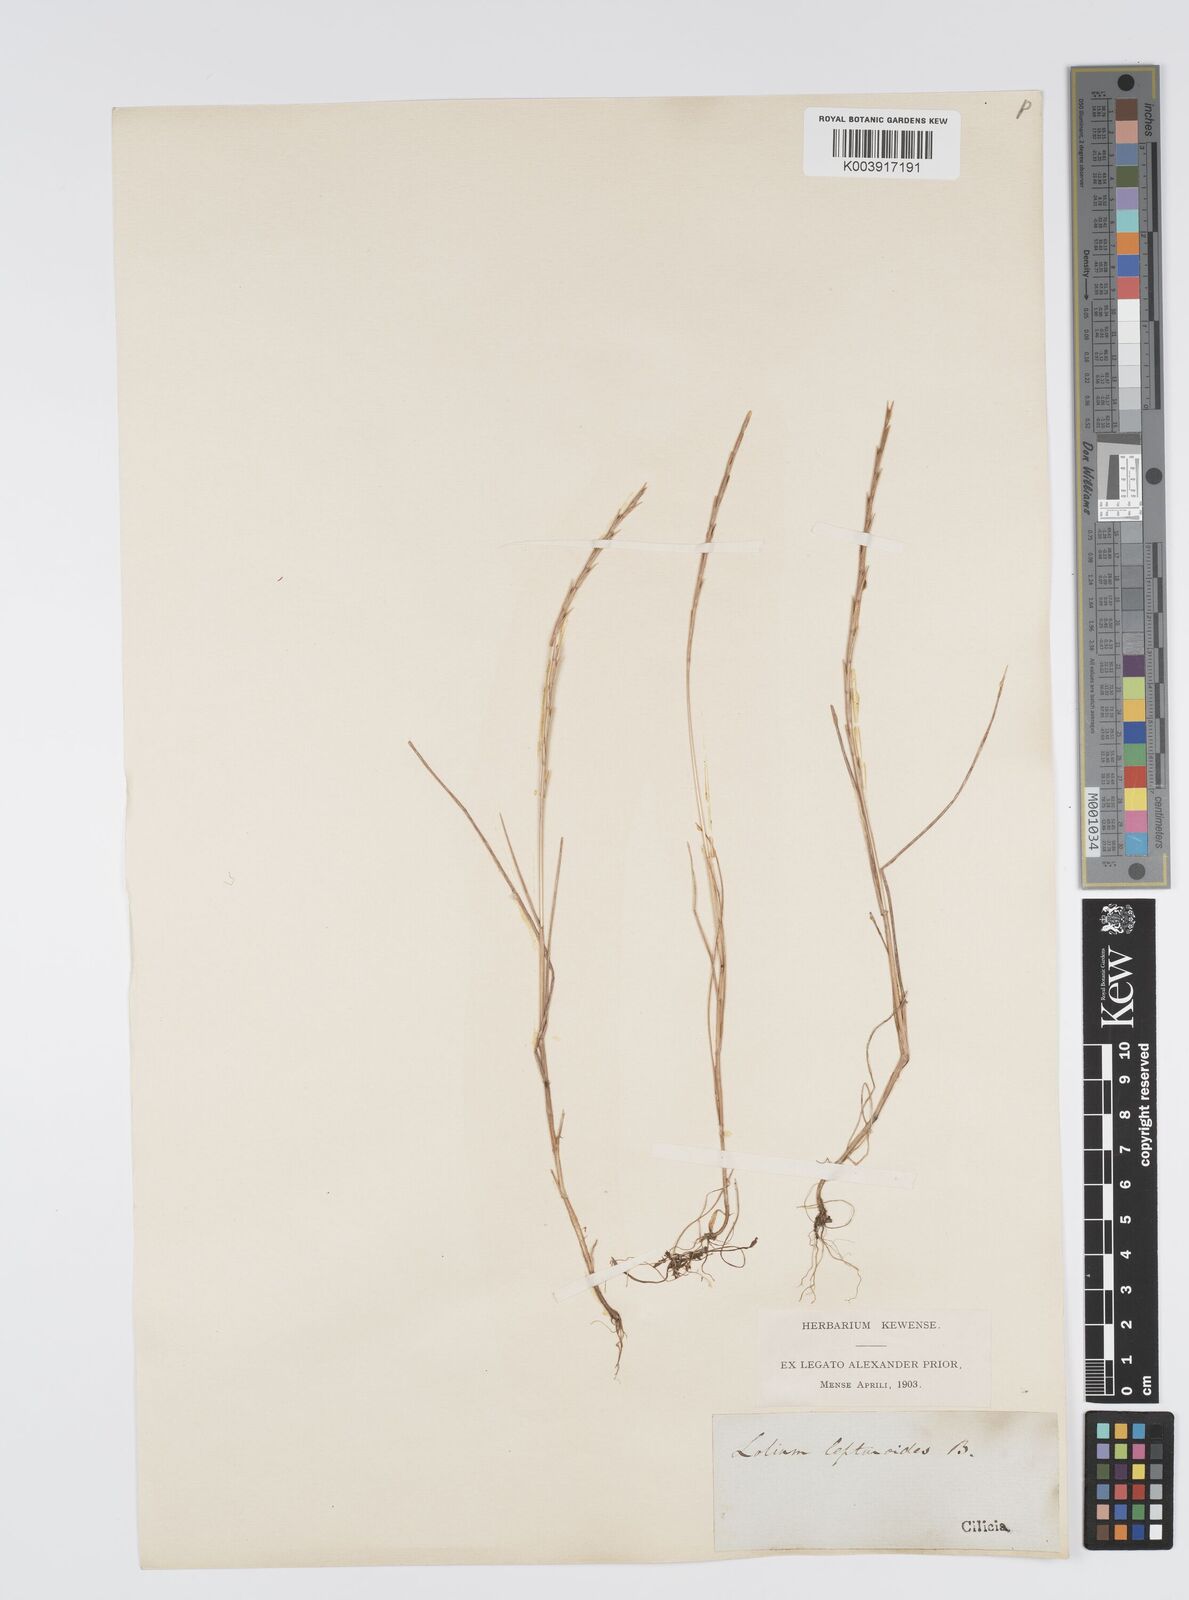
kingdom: Plantae
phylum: Tracheophyta
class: Liliopsida
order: Poales
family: Poaceae
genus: Lolium
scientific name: Lolium rigidum
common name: Wimmera ryegrass
